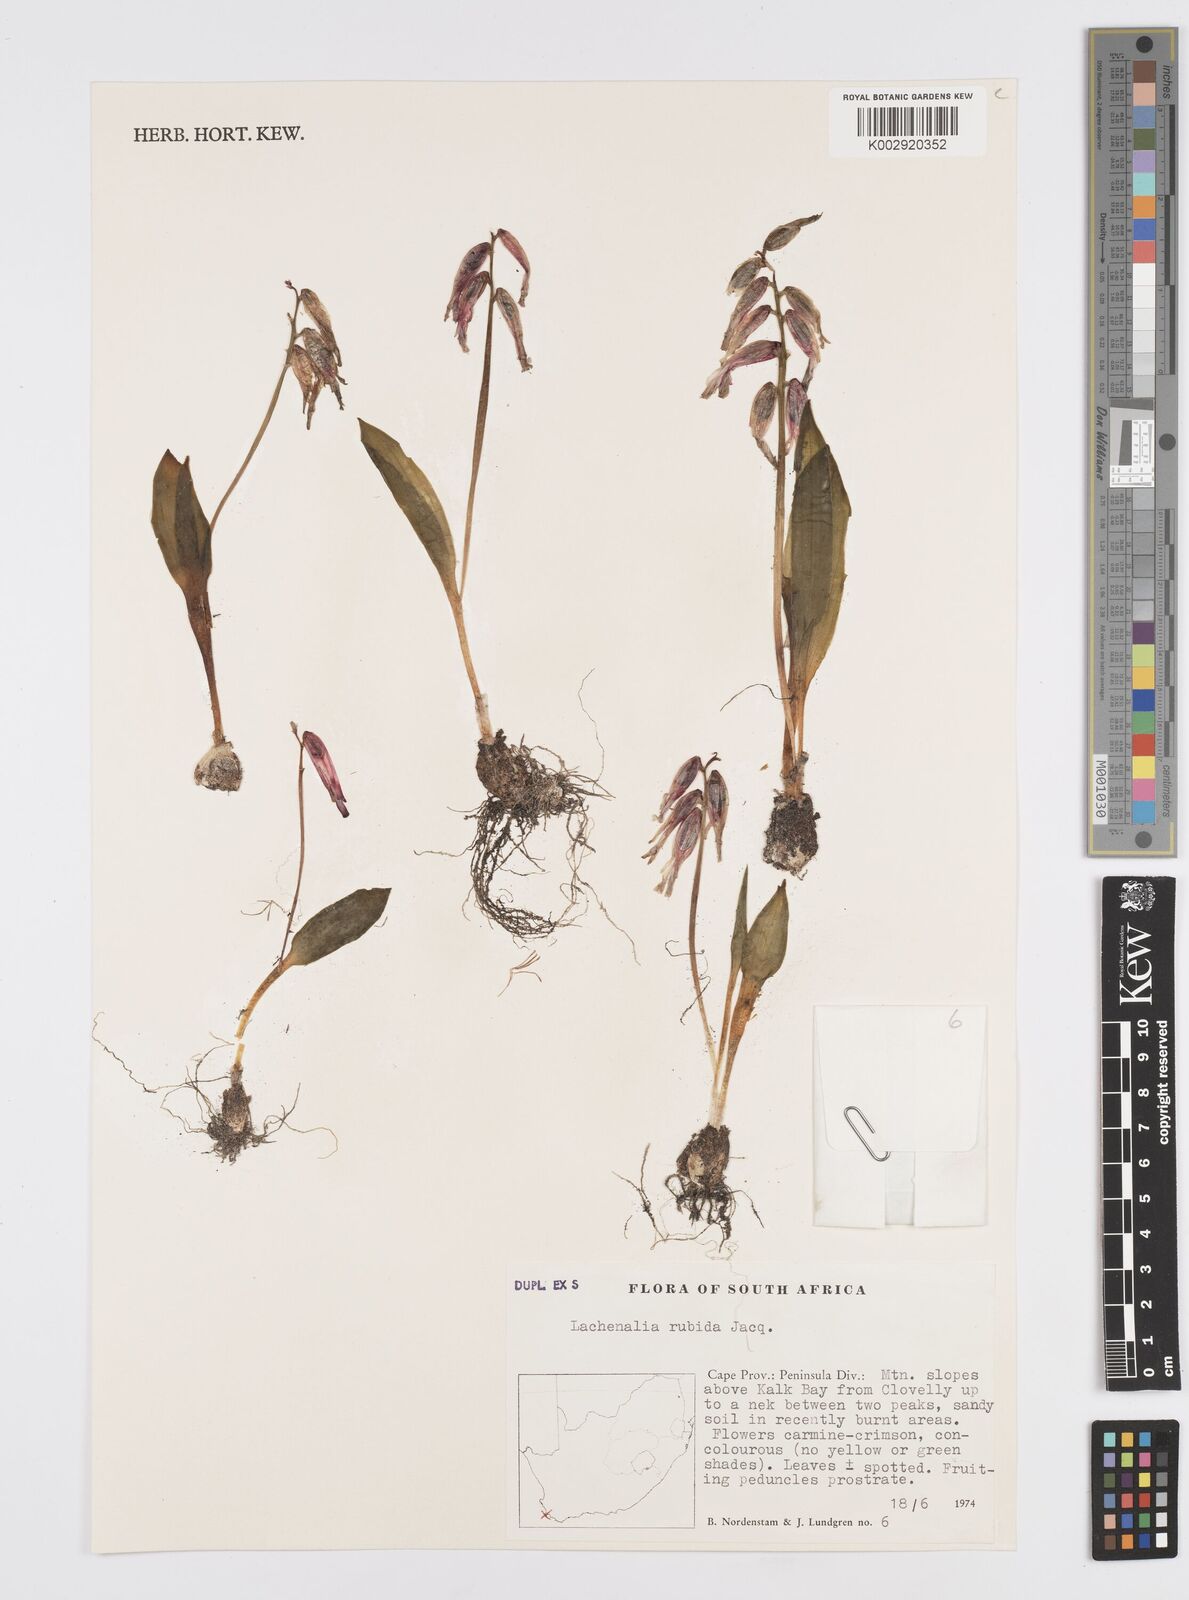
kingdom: Plantae
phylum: Tracheophyta
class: Liliopsida
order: Asparagales
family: Asparagaceae
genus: Lachenalia
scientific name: Lachenalia punctata
